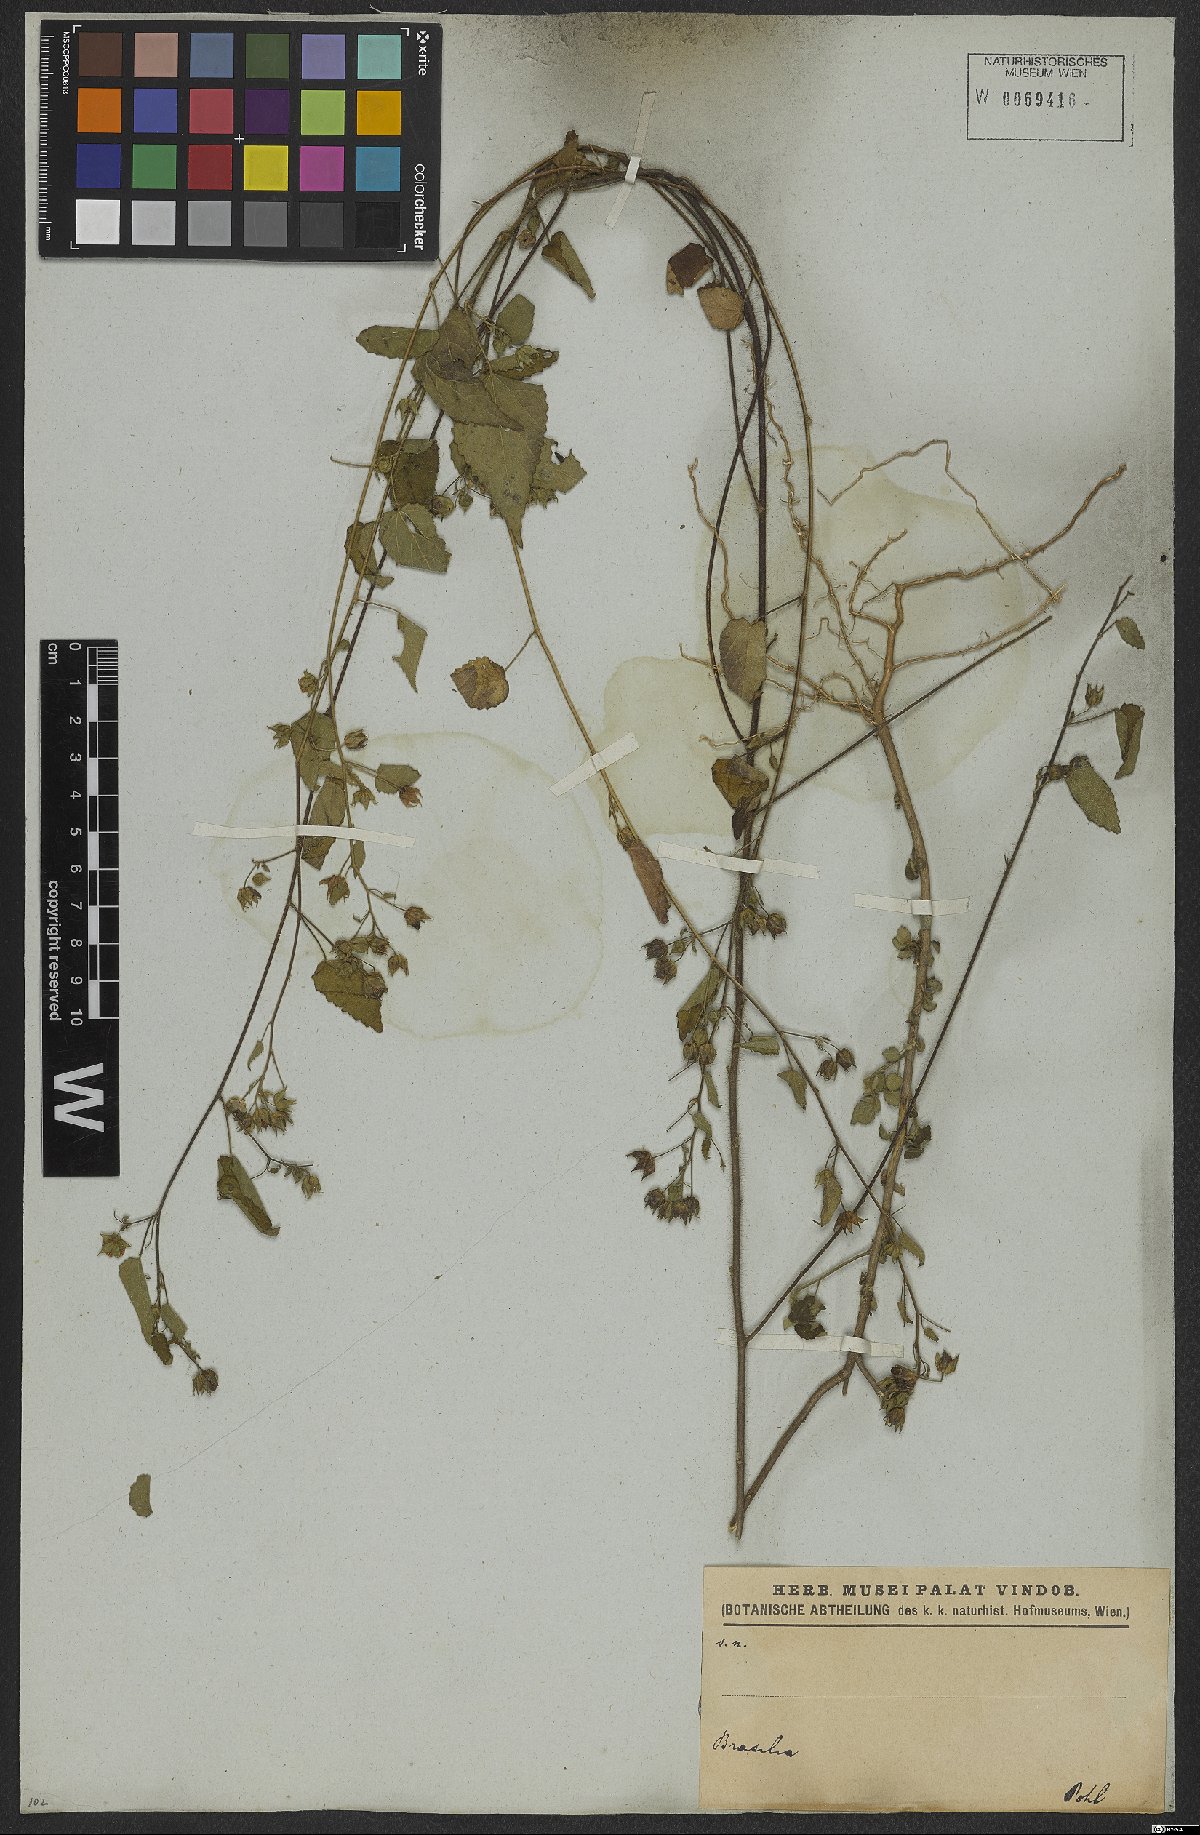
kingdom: Plantae
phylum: Tracheophyta
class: Magnoliopsida
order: Malvales
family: Malvaceae
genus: Sida
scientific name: Sida aurantiaca
